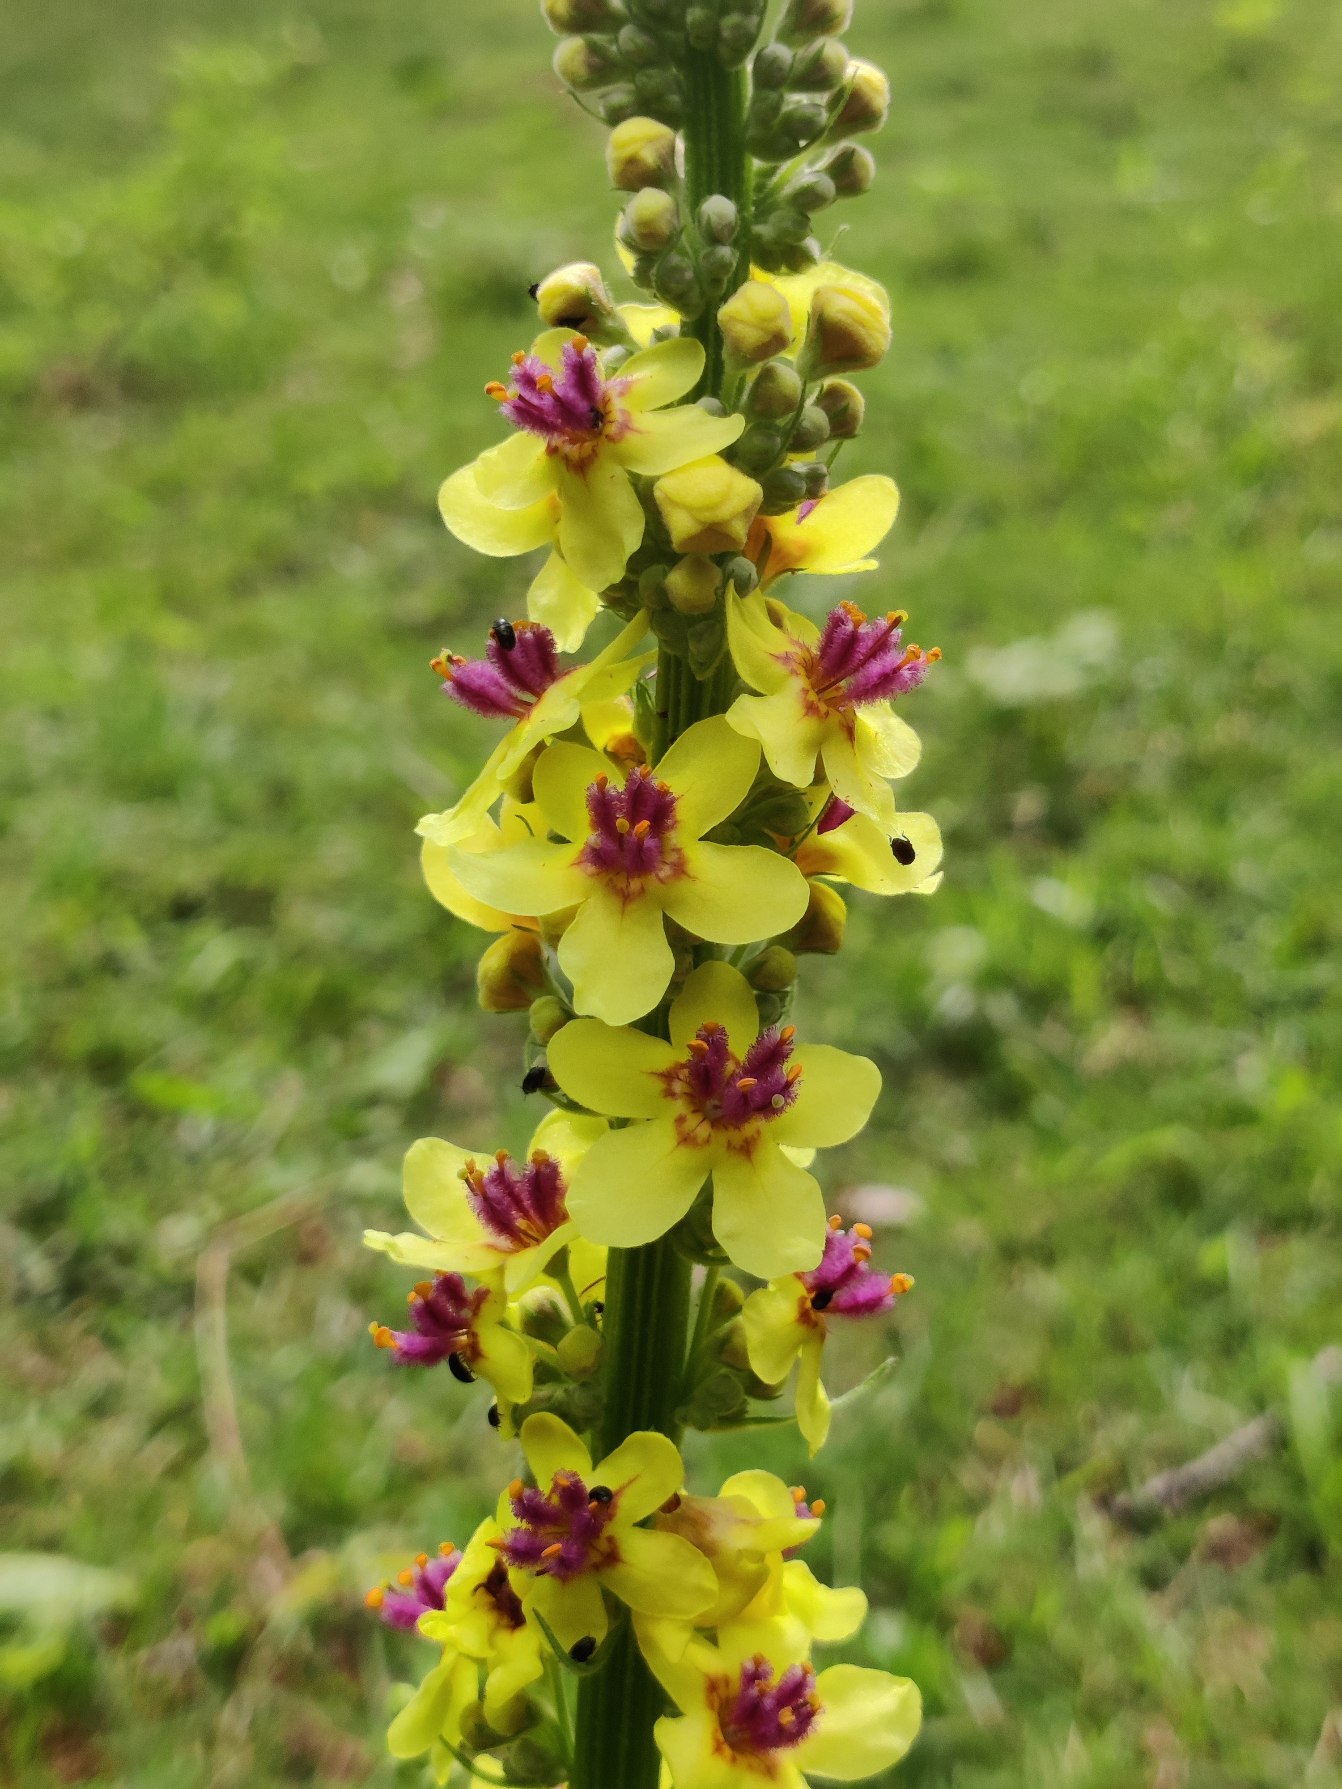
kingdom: Plantae
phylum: Tracheophyta
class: Magnoliopsida
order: Lamiales
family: Scrophulariaceae
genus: Verbascum
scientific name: Verbascum nigrum
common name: Mørk kongelys
